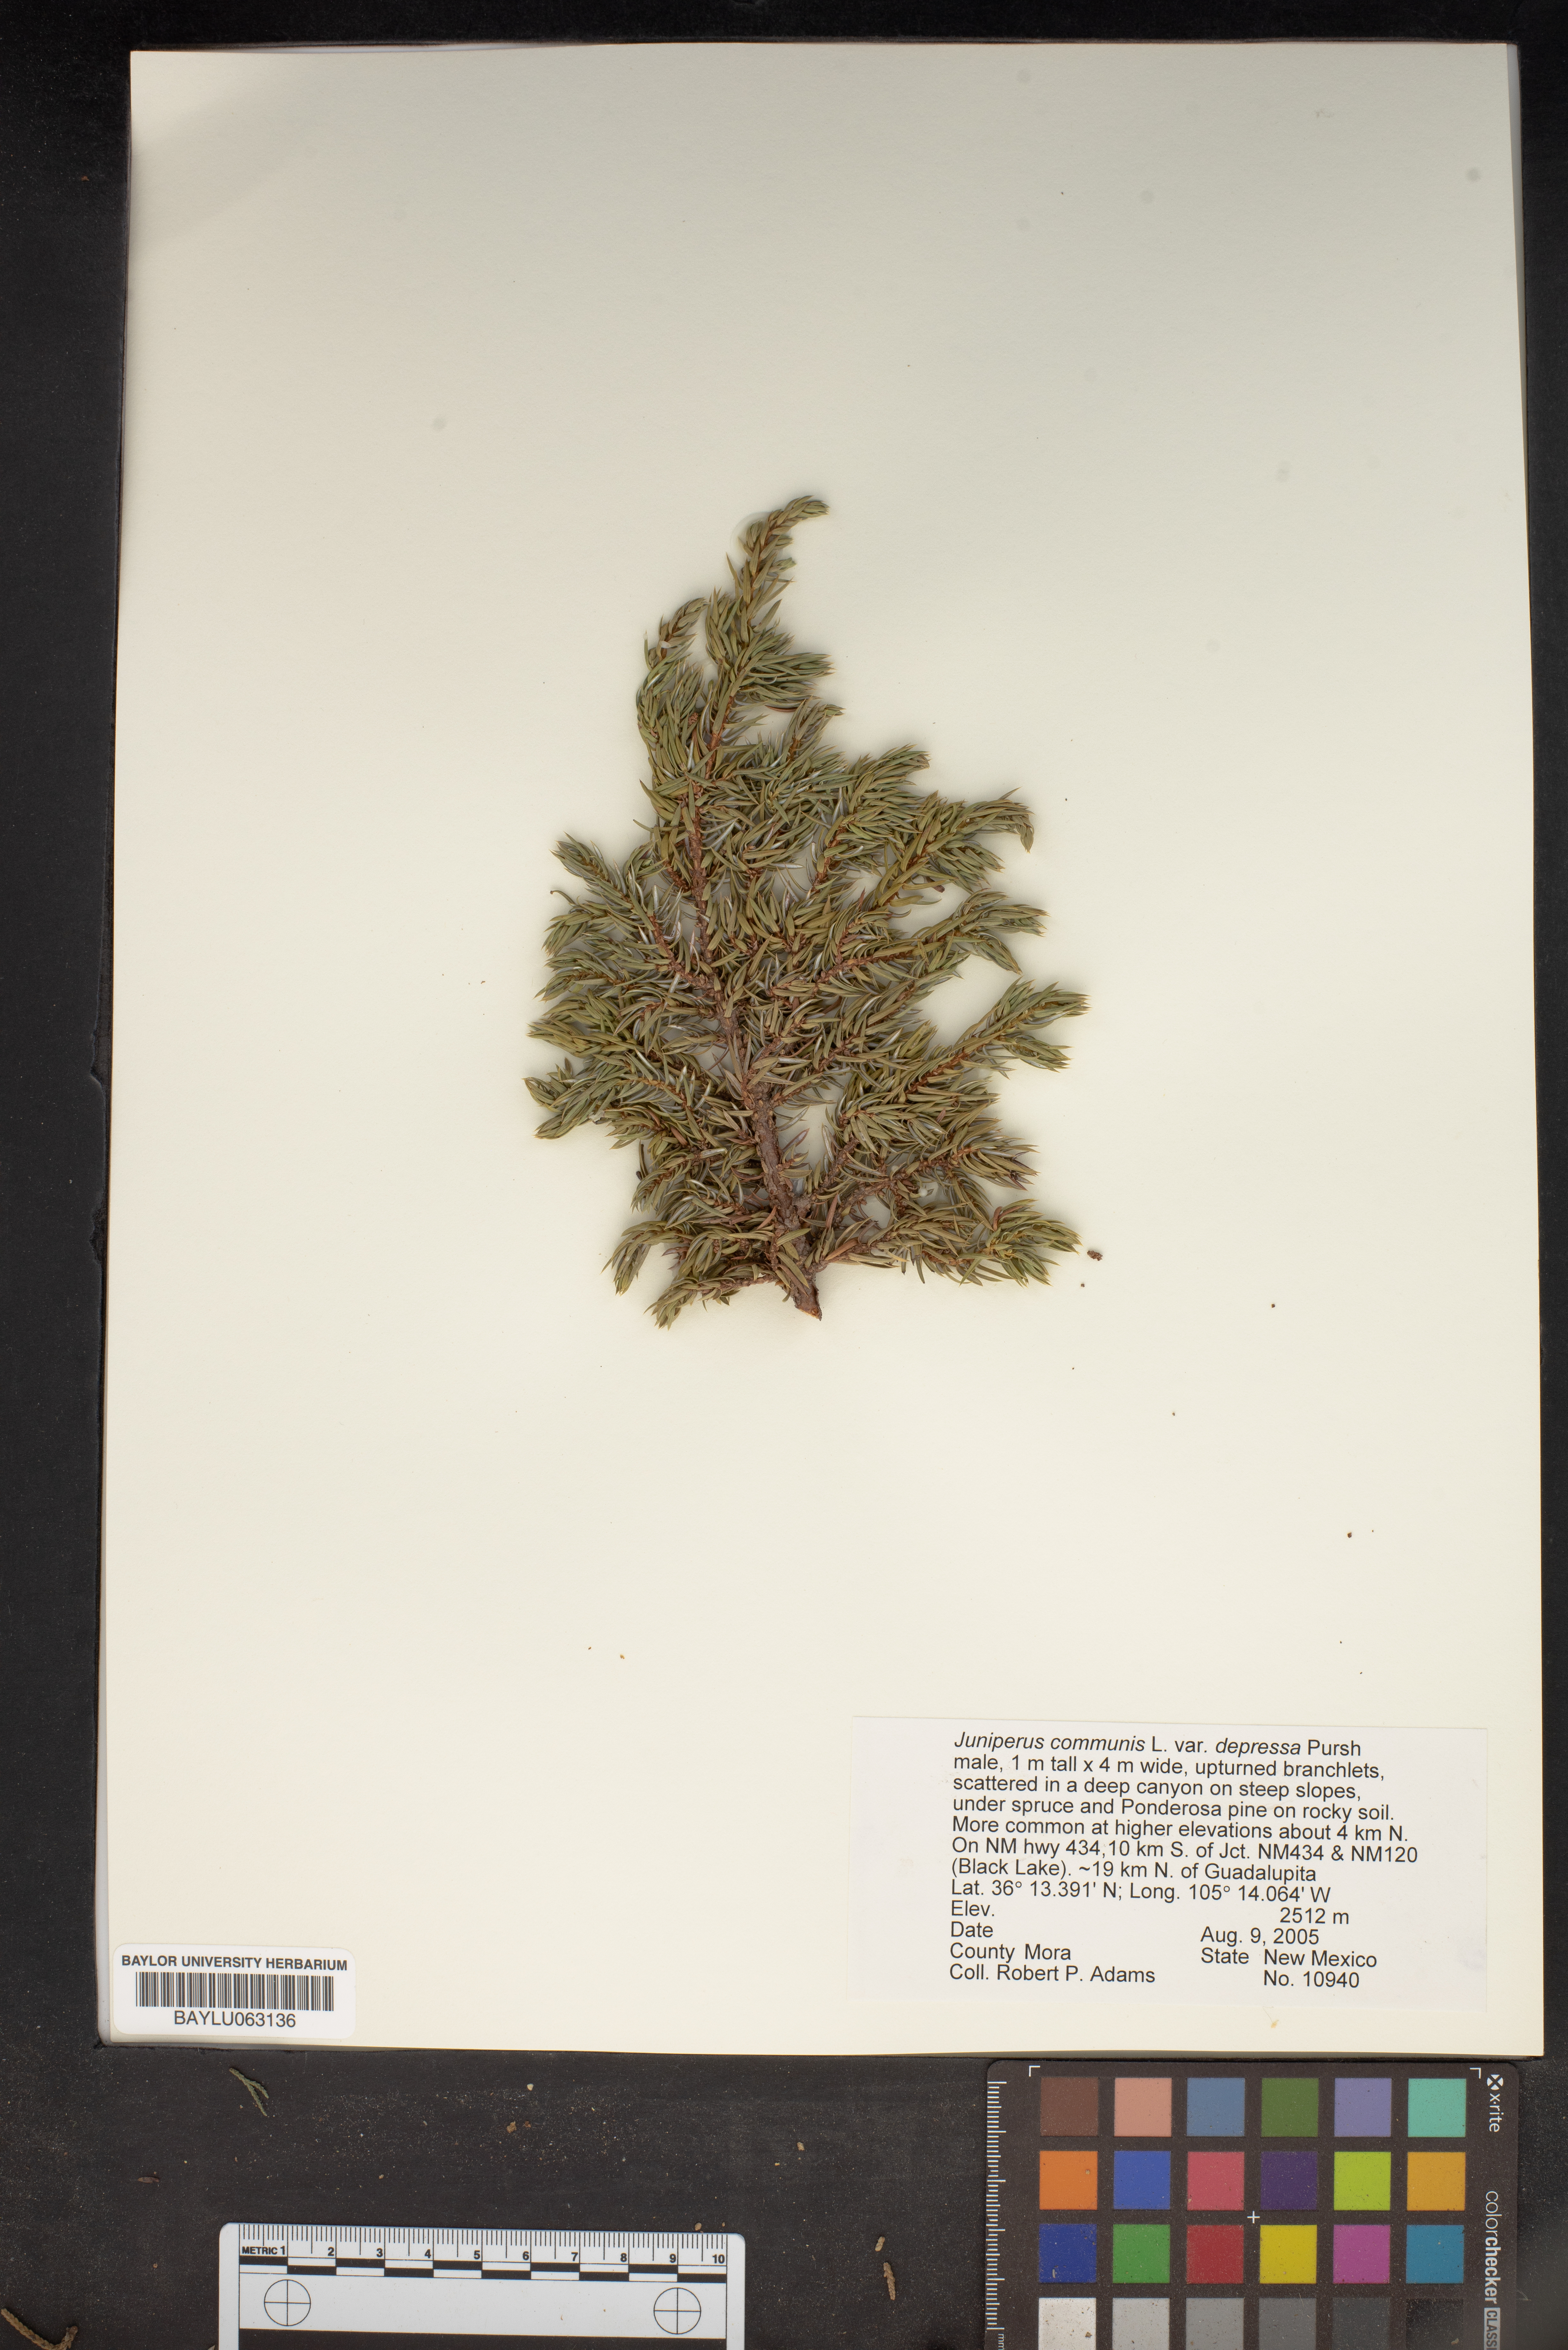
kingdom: Plantae
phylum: Tracheophyta
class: Pinopsida
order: Pinales
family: Cupressaceae
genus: Juniperus
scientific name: Juniperus communis
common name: Common juniper
